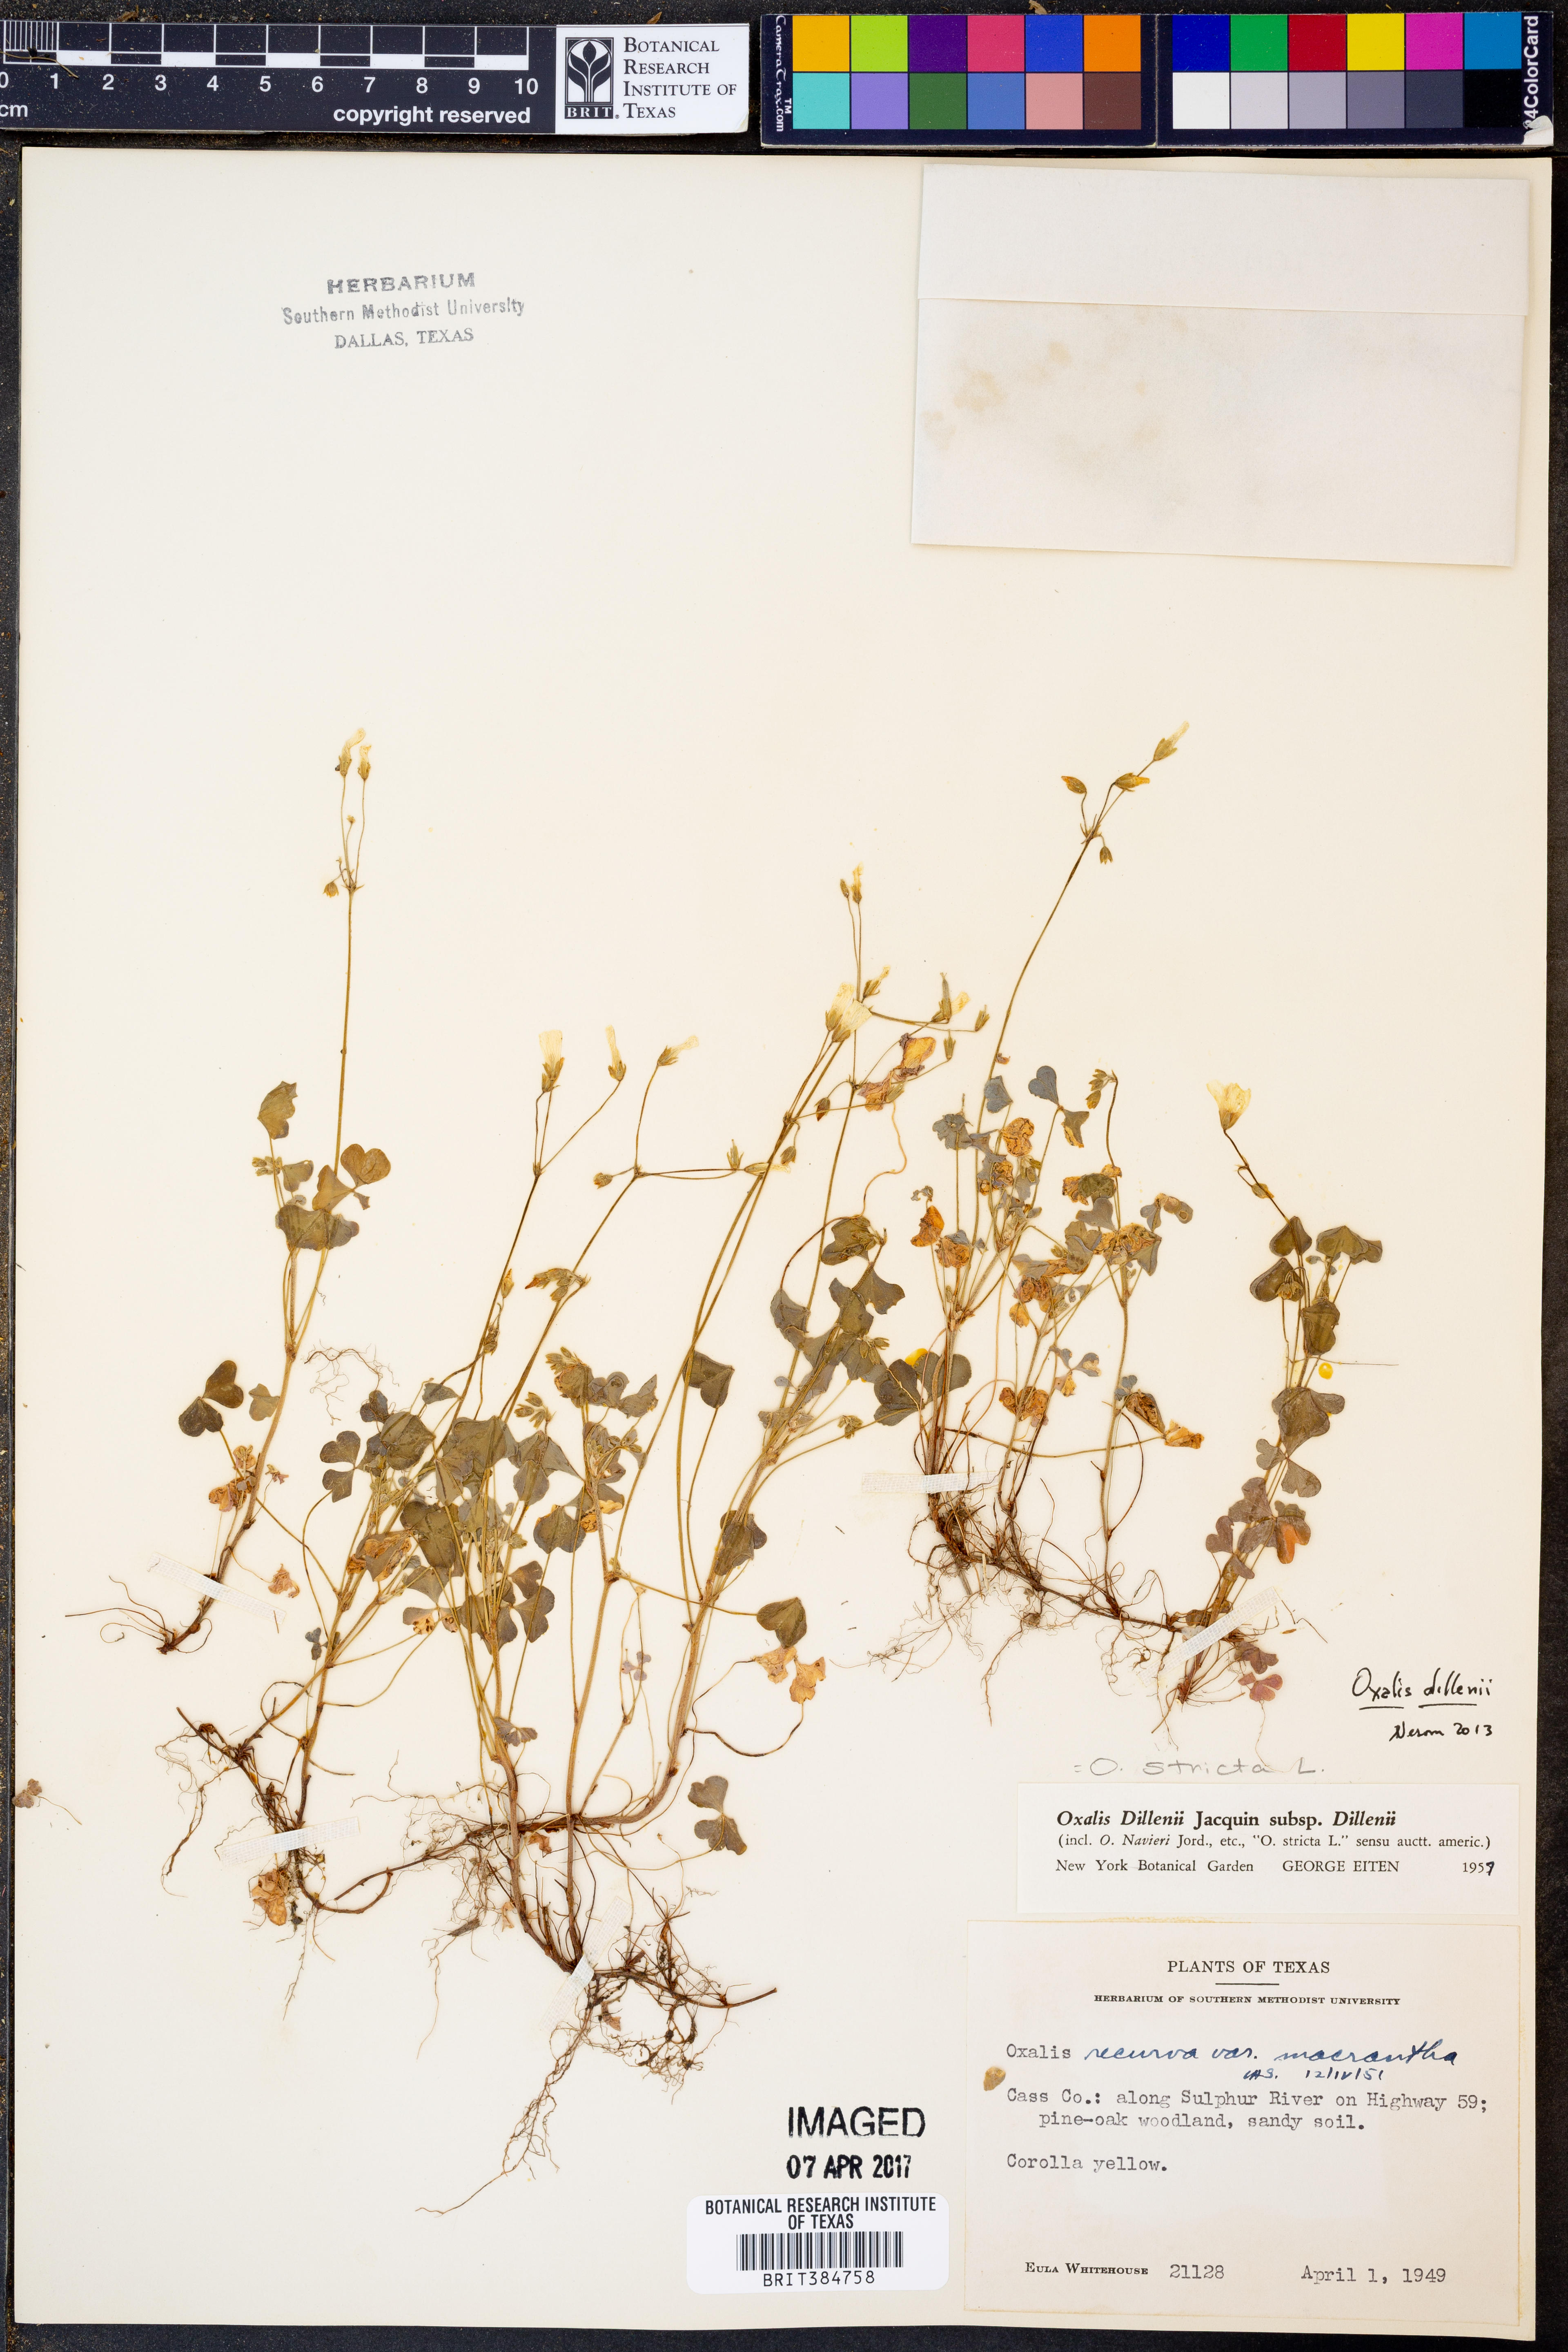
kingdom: Plantae
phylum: Tracheophyta
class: Magnoliopsida
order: Oxalidales
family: Oxalidaceae
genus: Oxalis
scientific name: Oxalis dillenii
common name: Sussex yellow-sorrel
